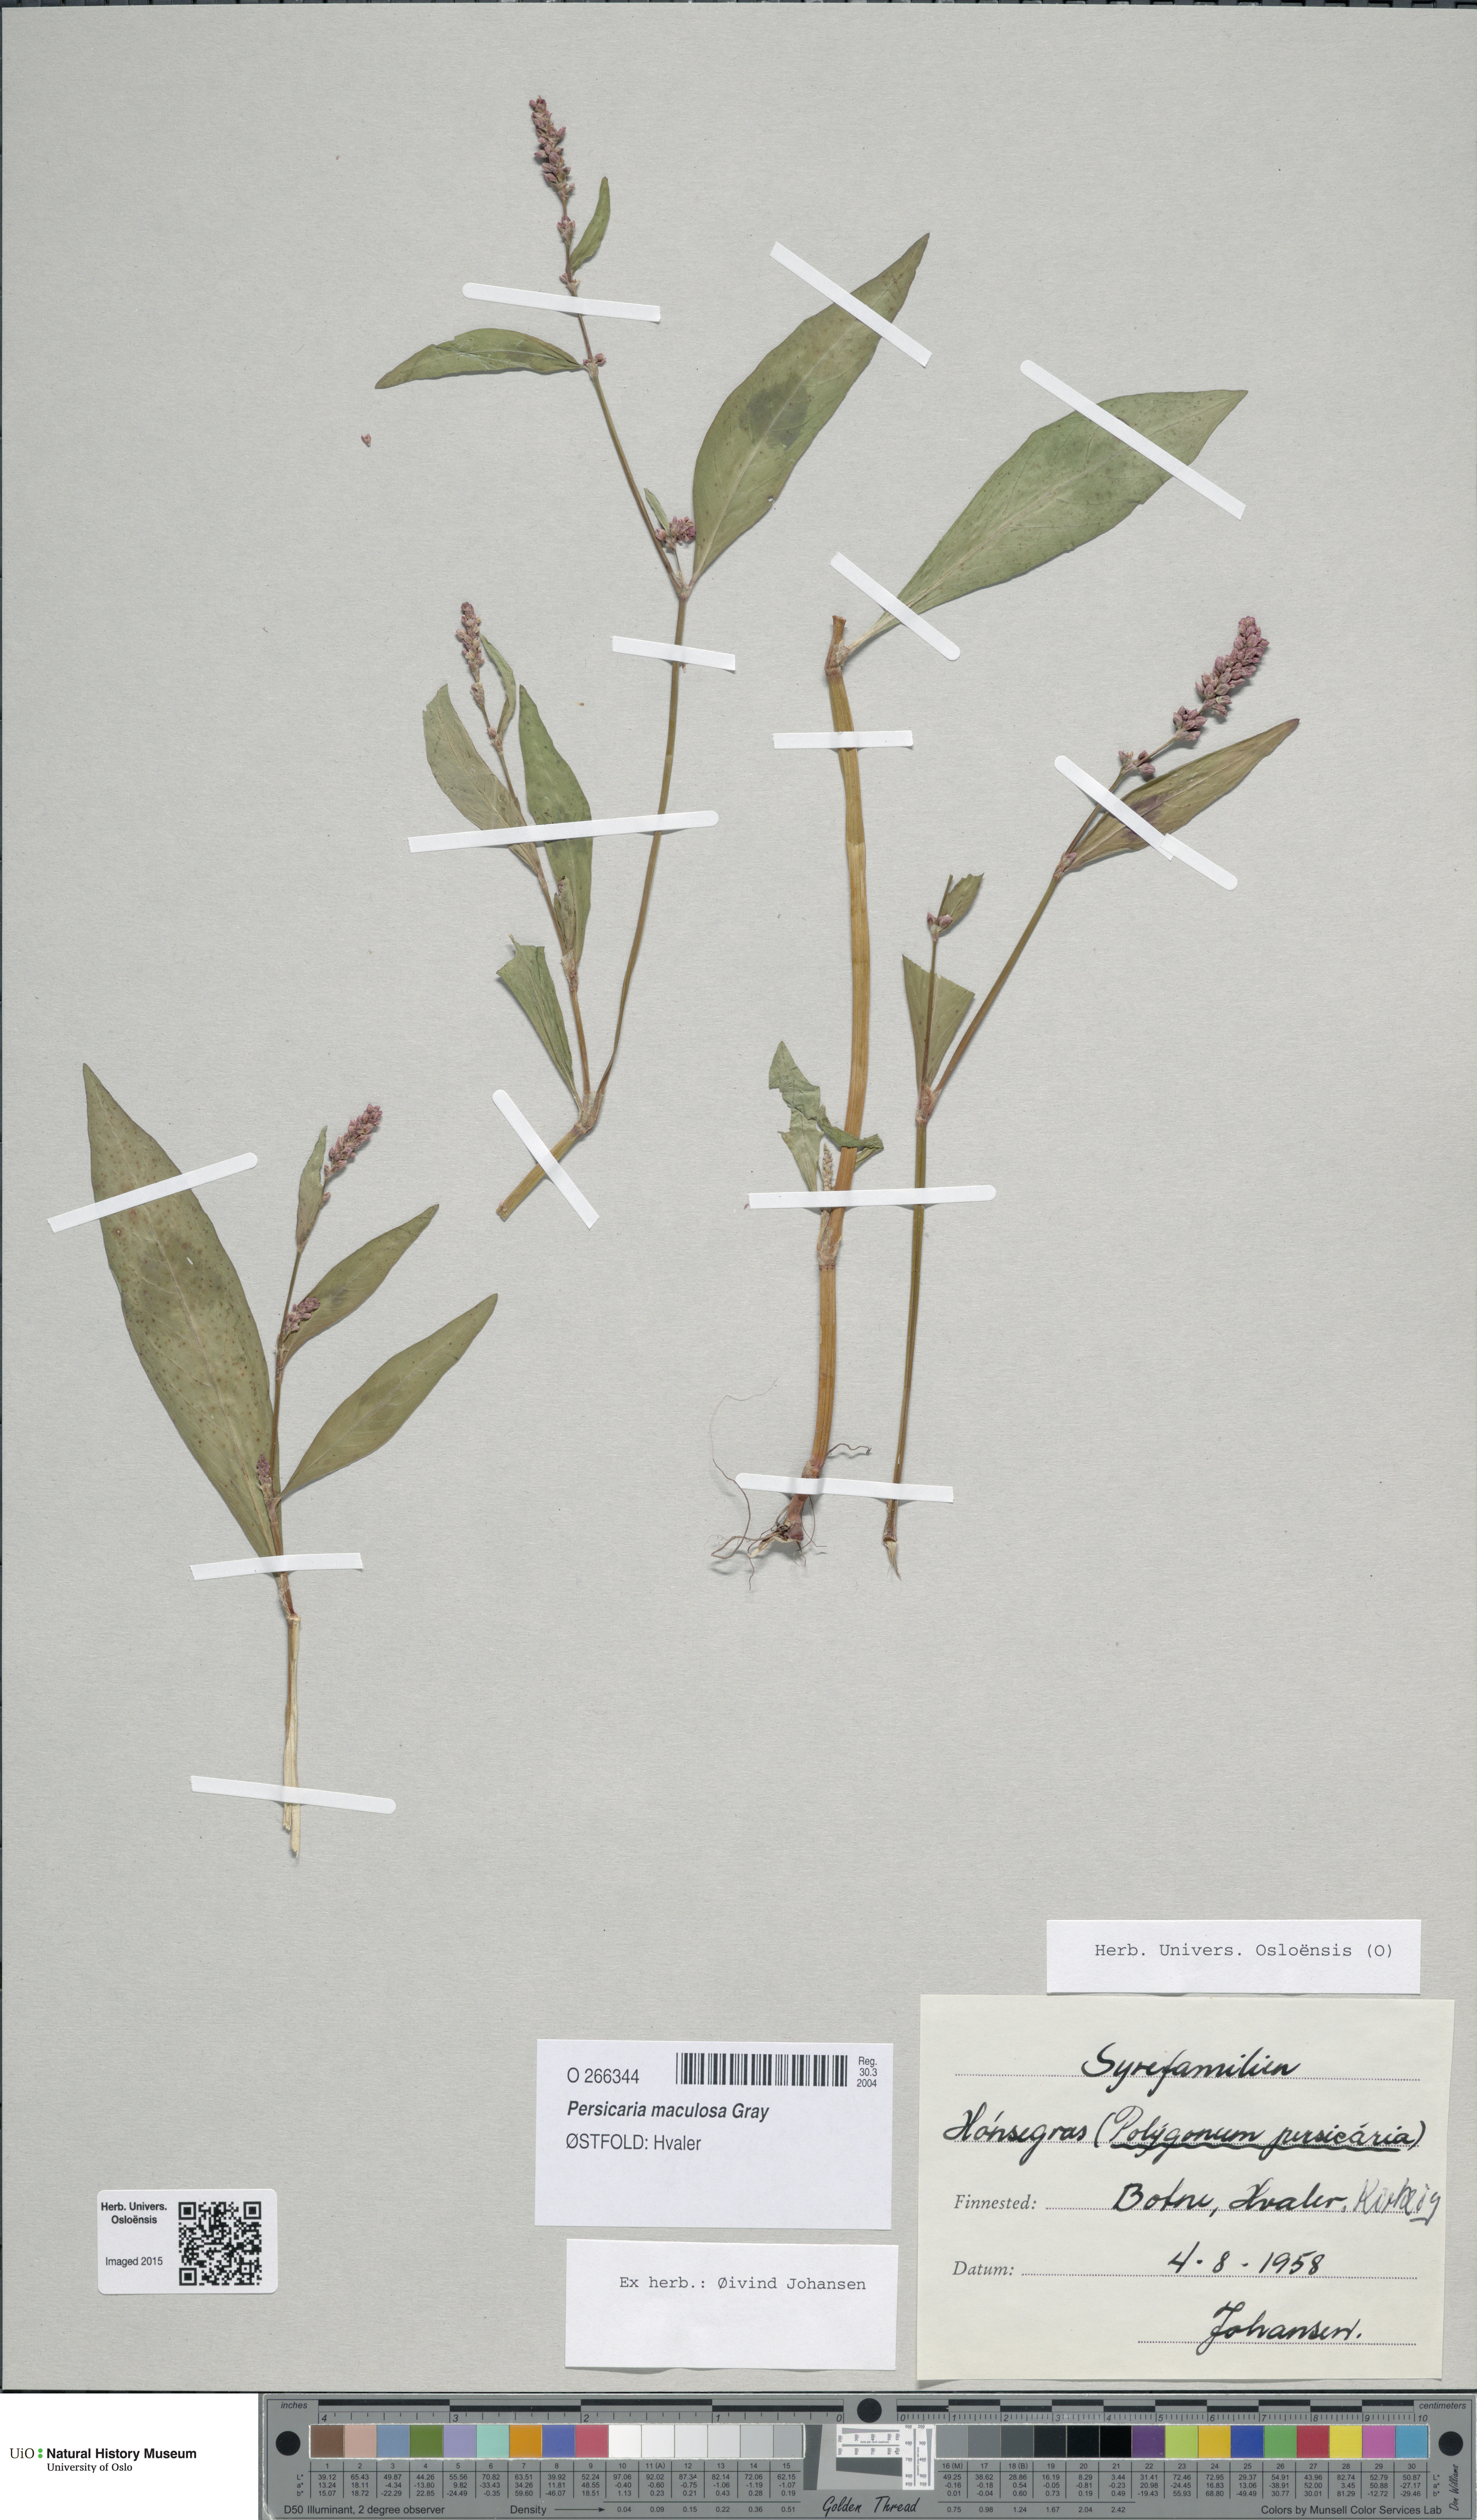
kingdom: Plantae
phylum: Tracheophyta
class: Magnoliopsida
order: Caryophyllales
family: Polygonaceae
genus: Persicaria
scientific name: Persicaria maculosa
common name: Redshank
